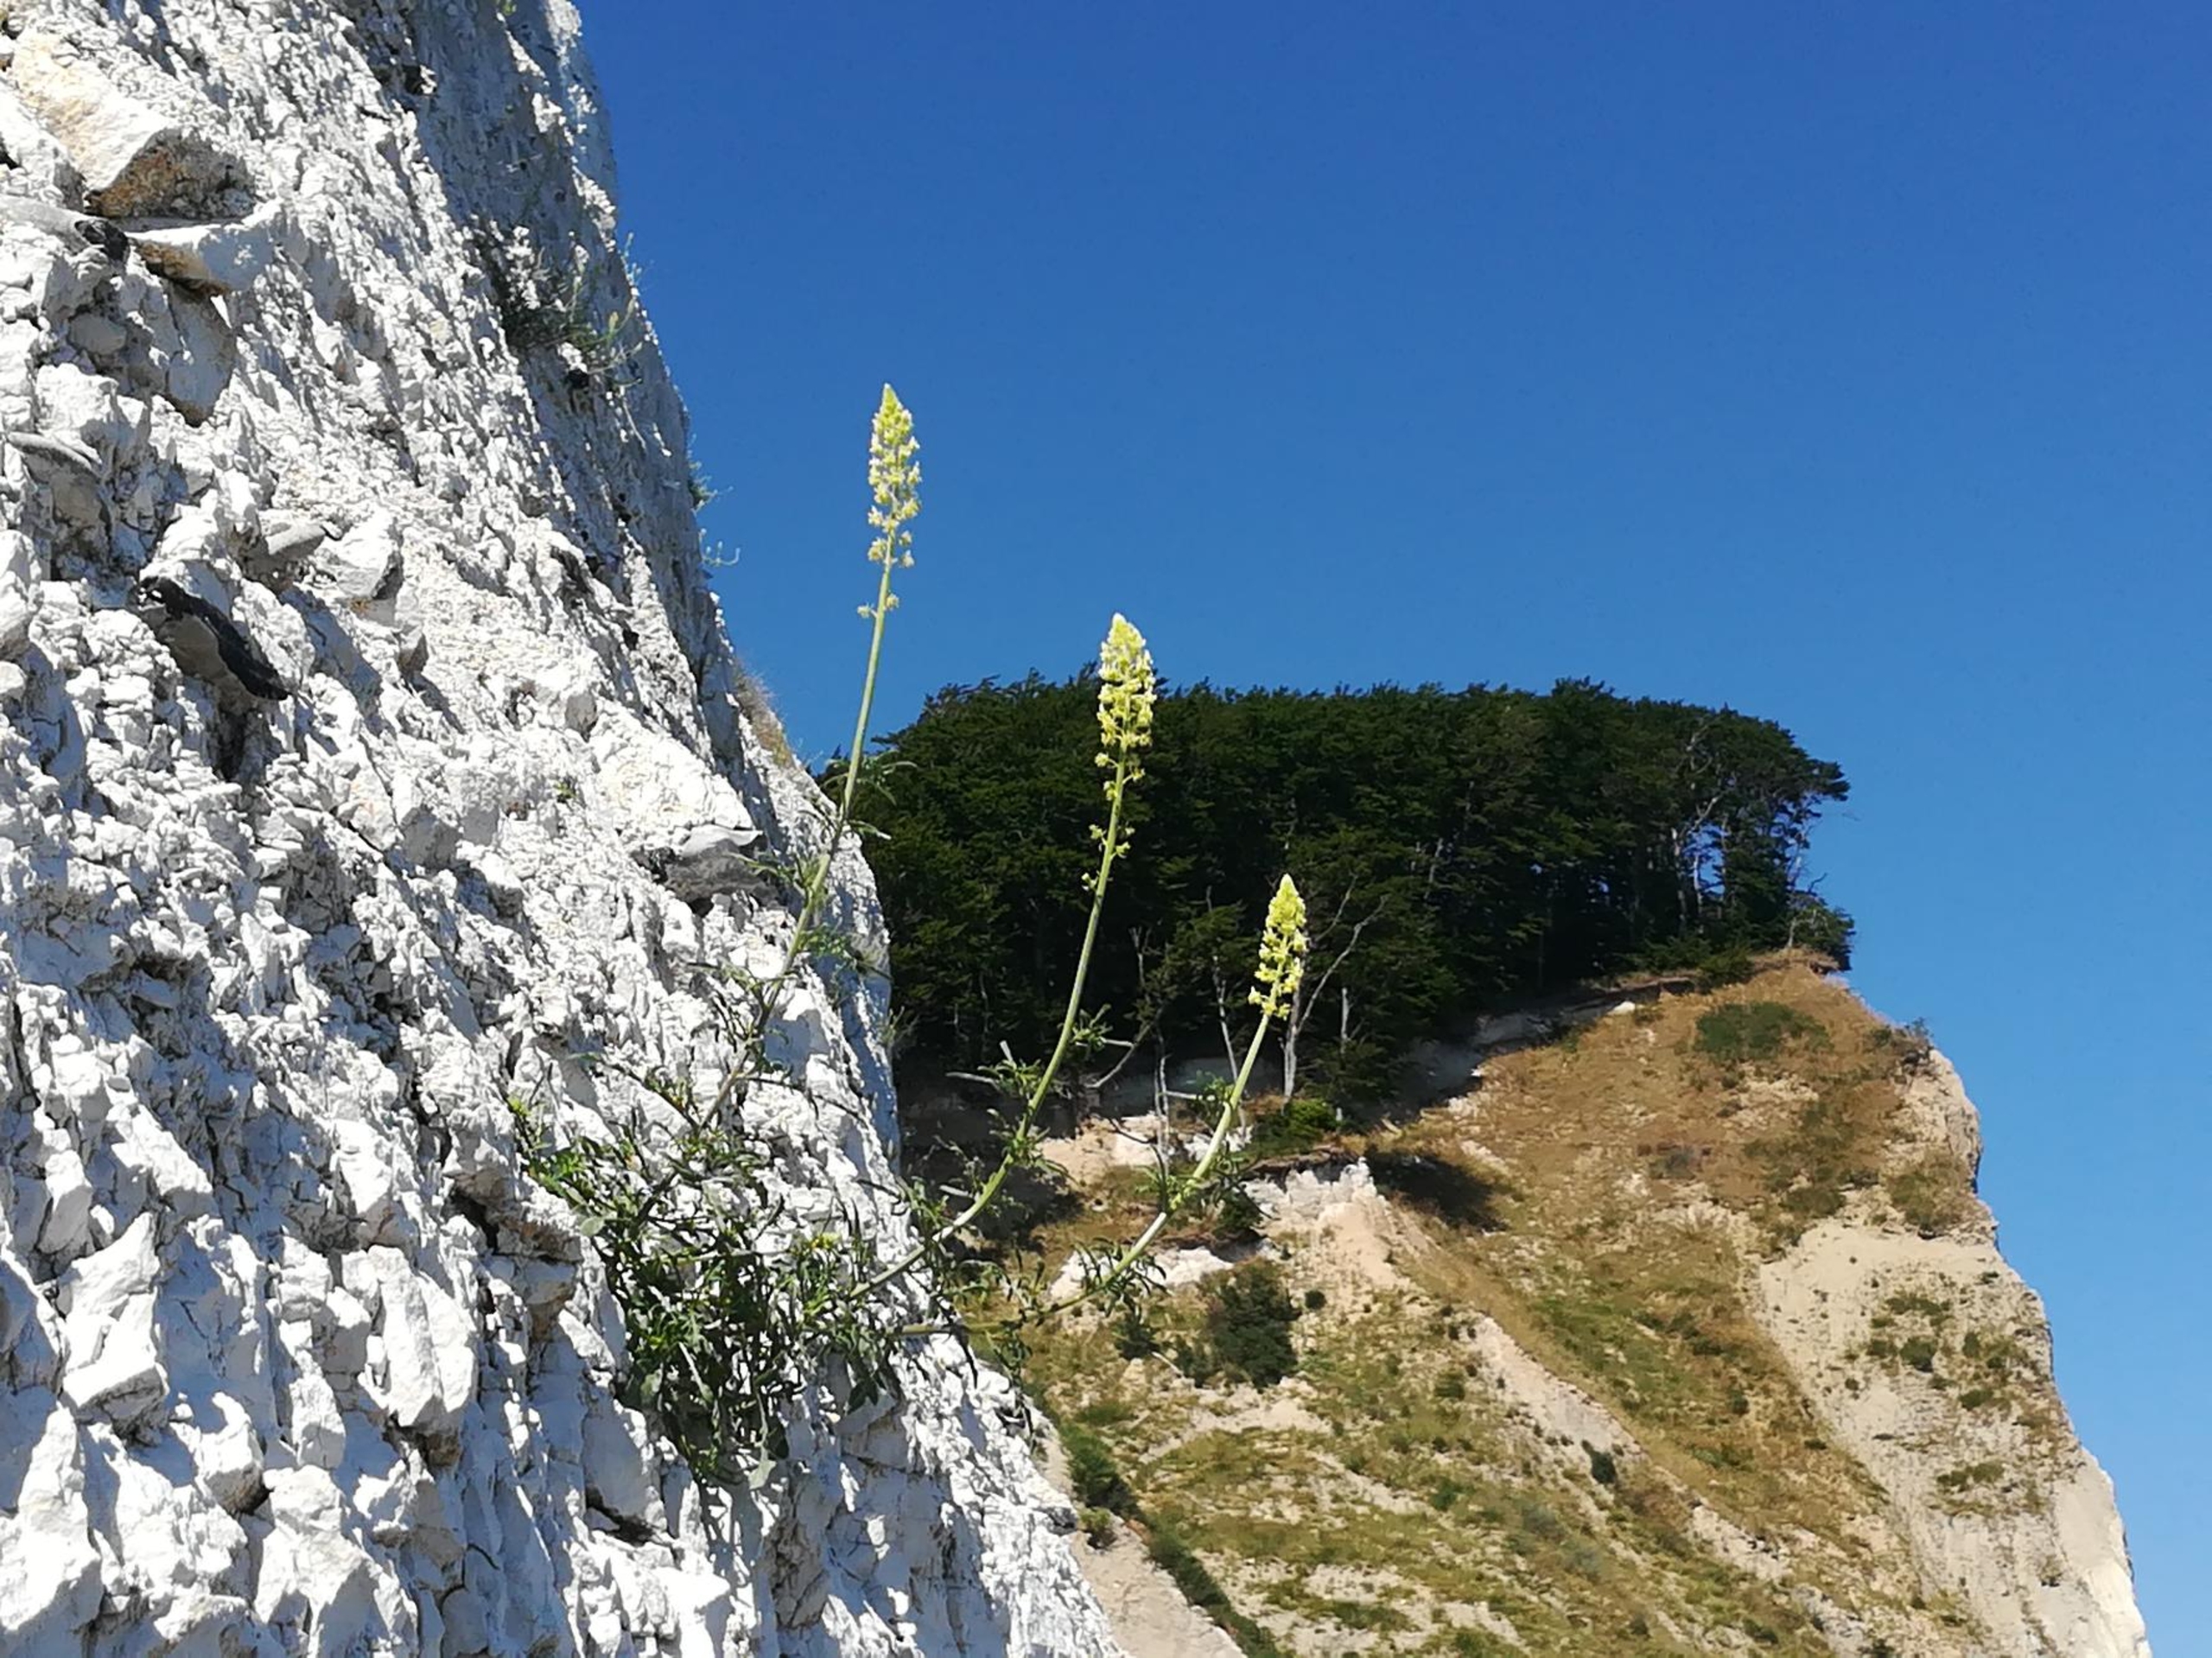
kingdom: Plantae
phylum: Tracheophyta
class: Magnoliopsida
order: Brassicales
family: Resedaceae
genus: Reseda
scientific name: Reseda lutea
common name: Gul reseda
